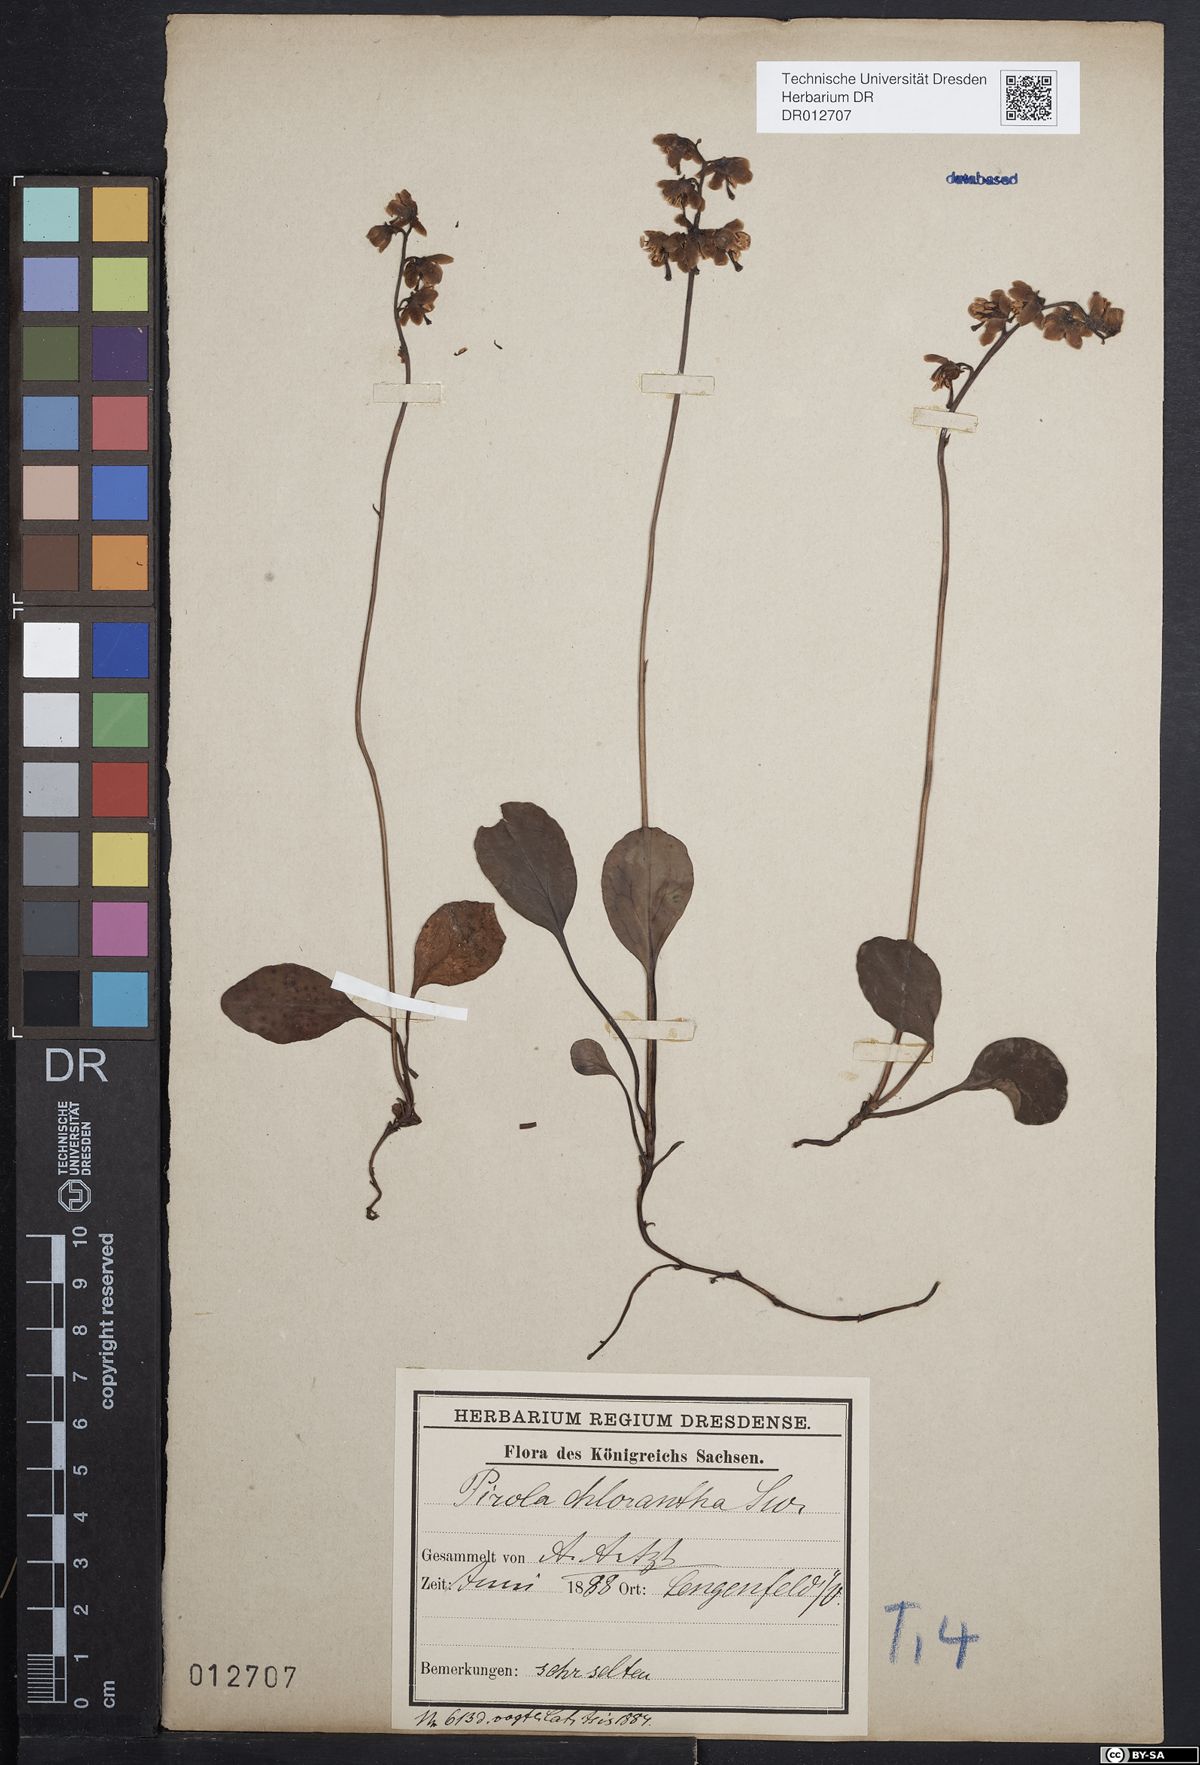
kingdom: Plantae
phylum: Tracheophyta
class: Magnoliopsida
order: Ericales
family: Ericaceae
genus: Pyrola
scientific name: Pyrola chlorantha
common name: Green wintergreen
